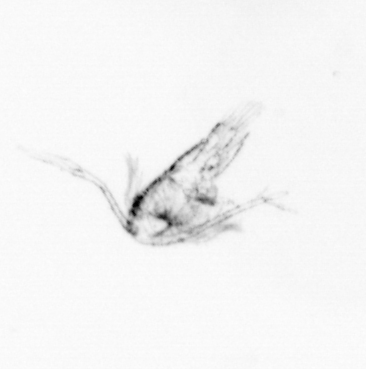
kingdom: Animalia
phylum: Arthropoda
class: Copepoda
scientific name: Copepoda
